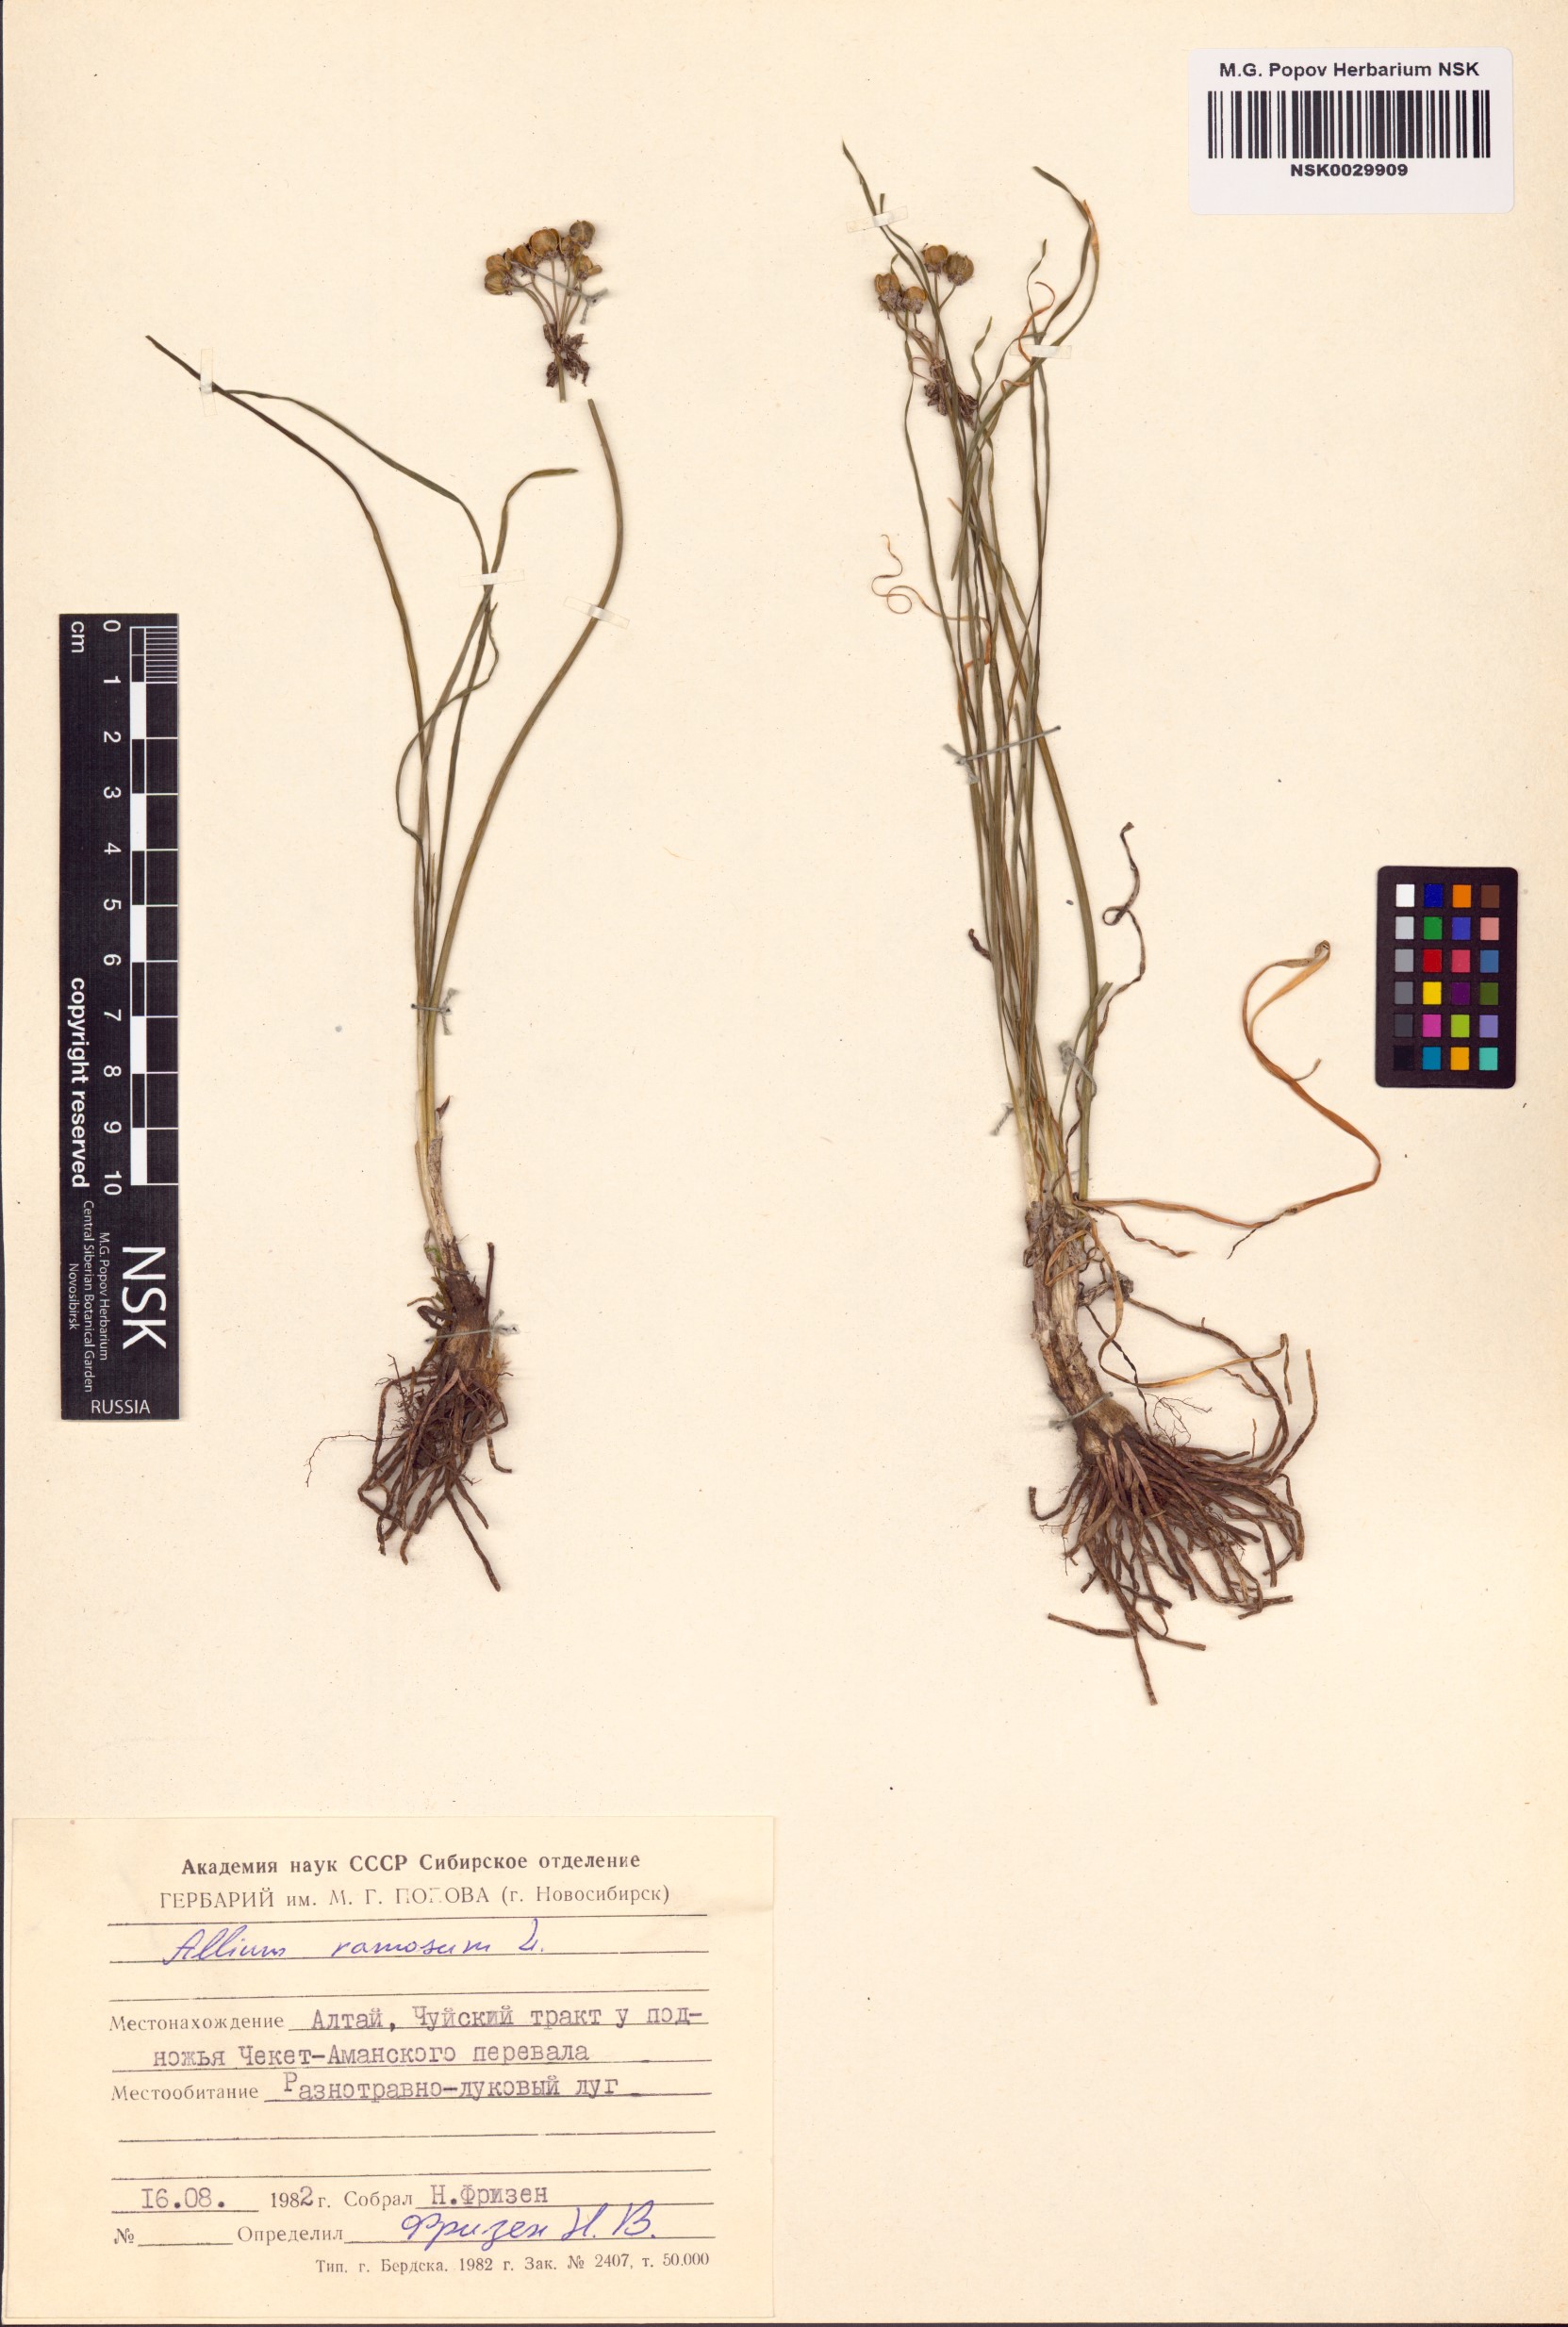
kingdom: Plantae
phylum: Tracheophyta
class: Liliopsida
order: Asparagales
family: Amaryllidaceae
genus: Allium
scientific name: Allium ramosum
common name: Fragrant garlic
